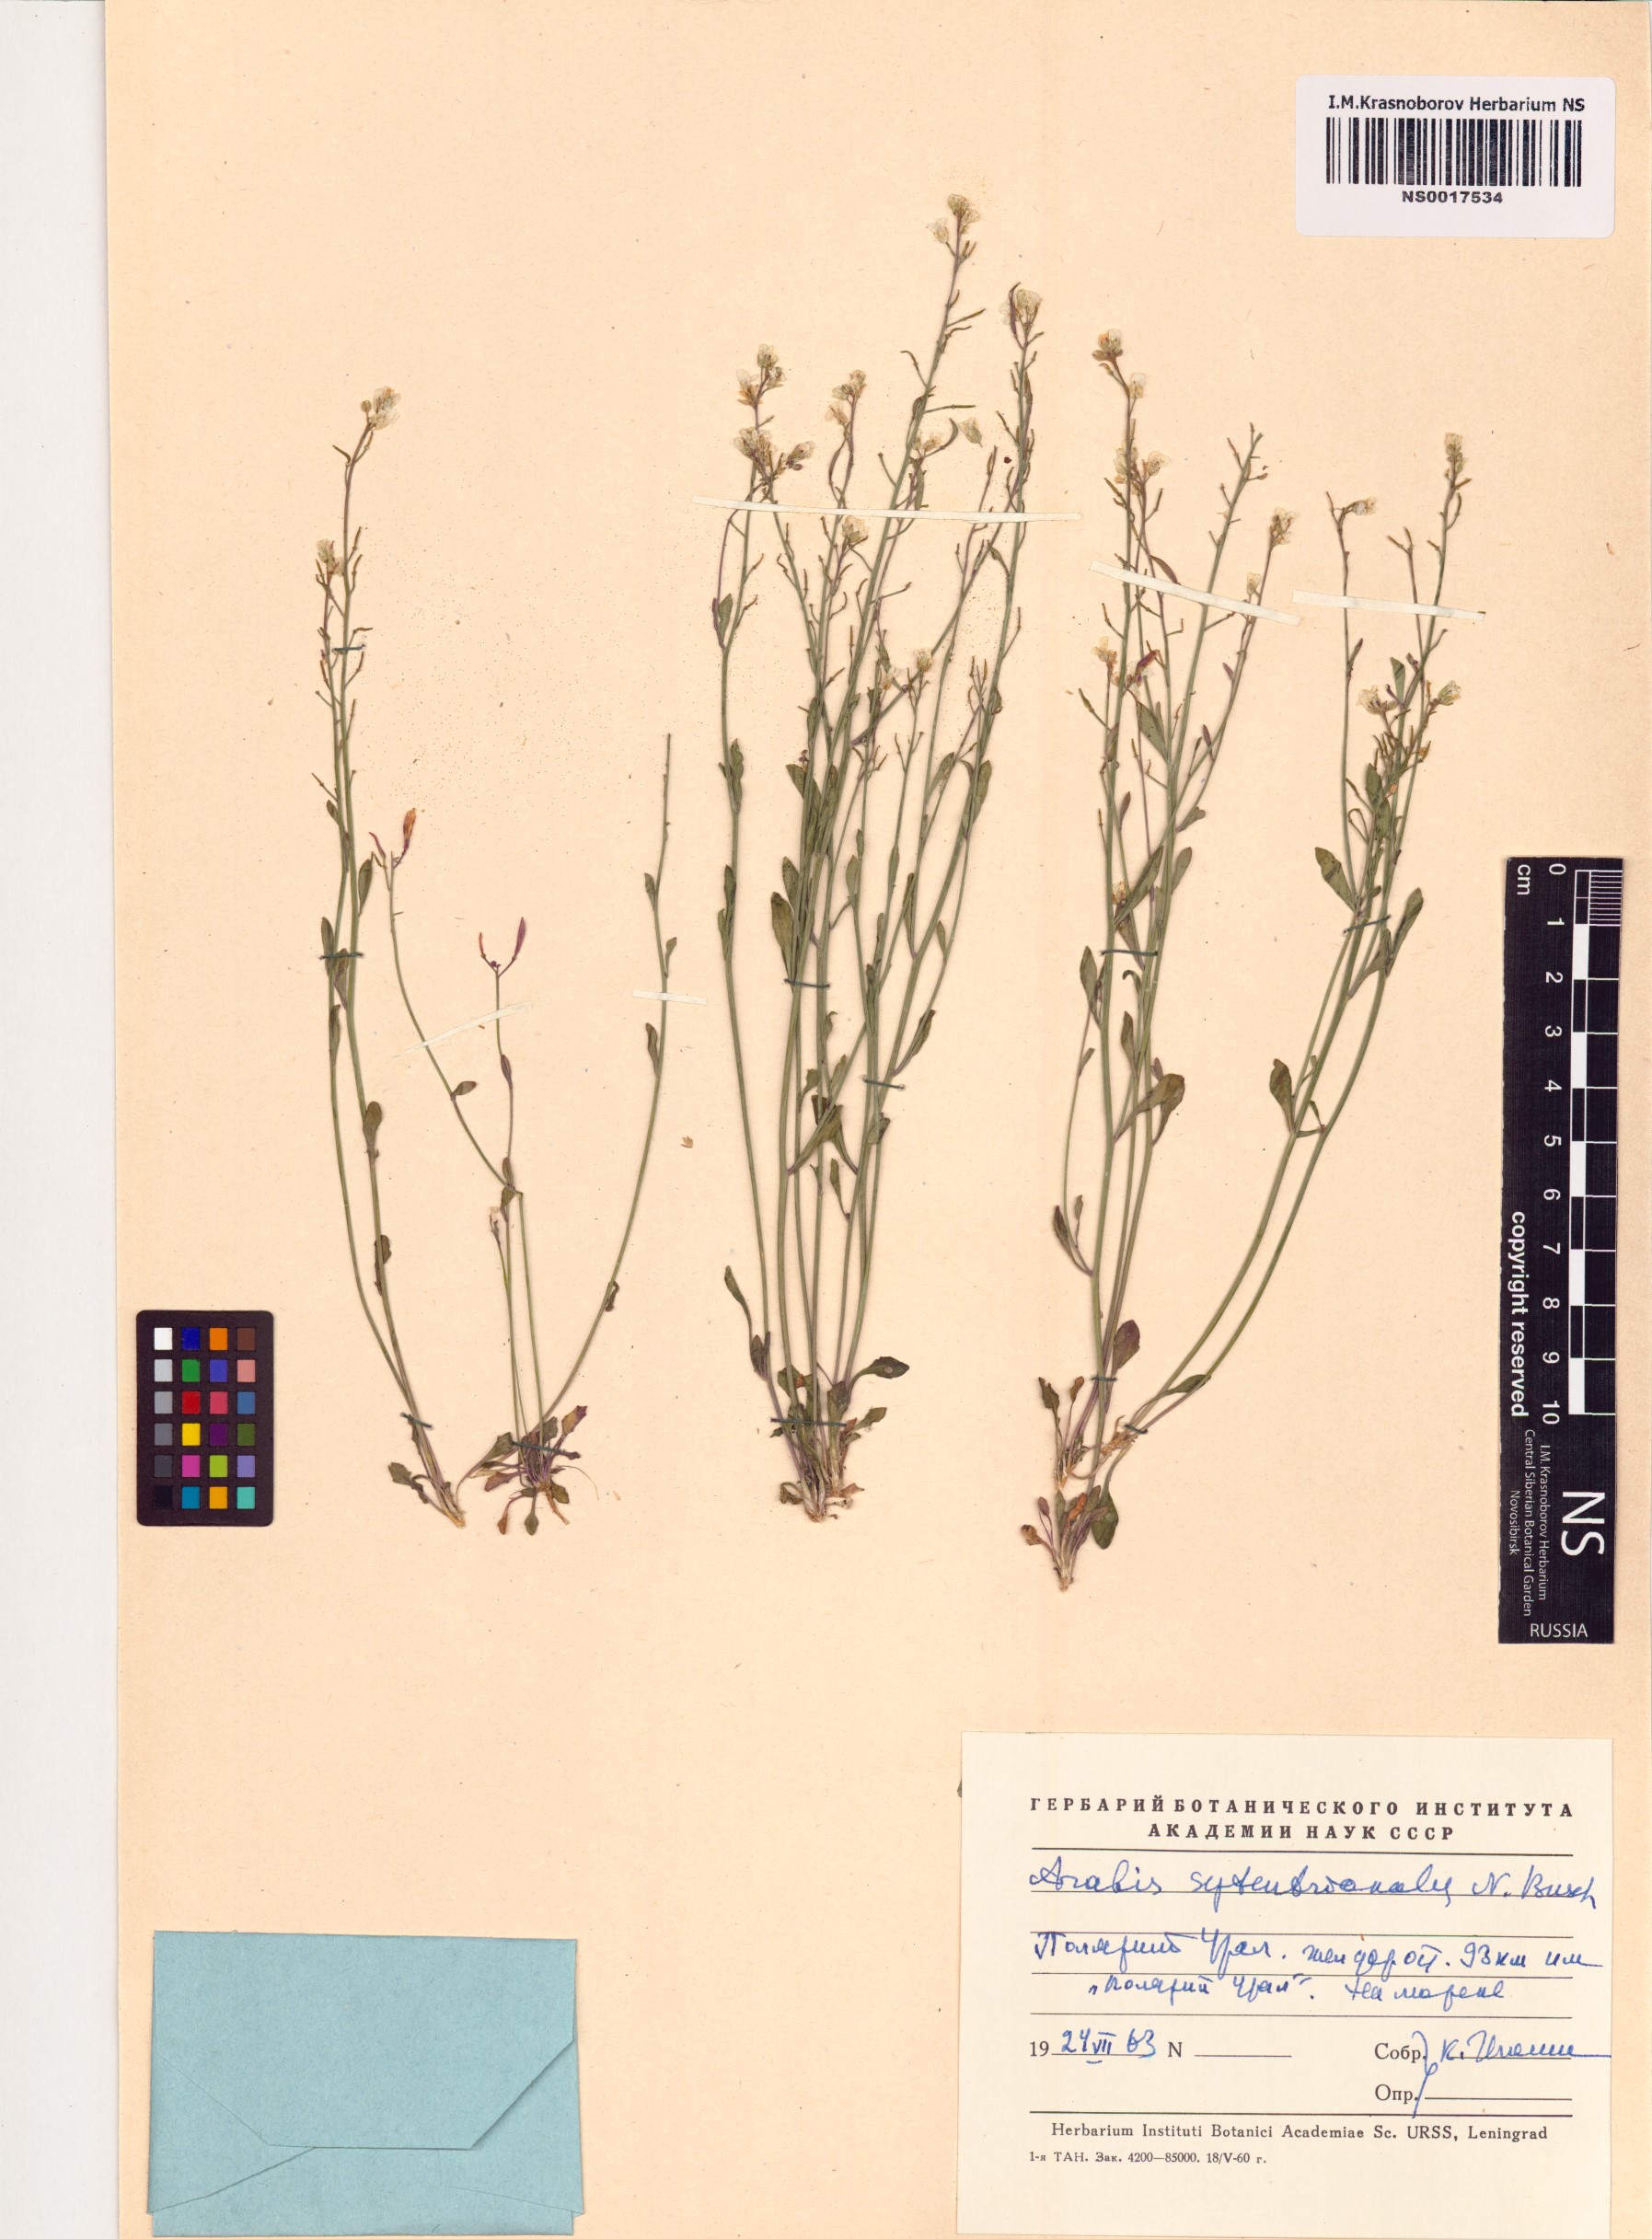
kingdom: Plantae
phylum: Tracheophyta
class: Magnoliopsida
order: Brassicales
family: Brassicaceae
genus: Arabidopsis
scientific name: Arabidopsis lyrata
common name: Lyrate rockcress
